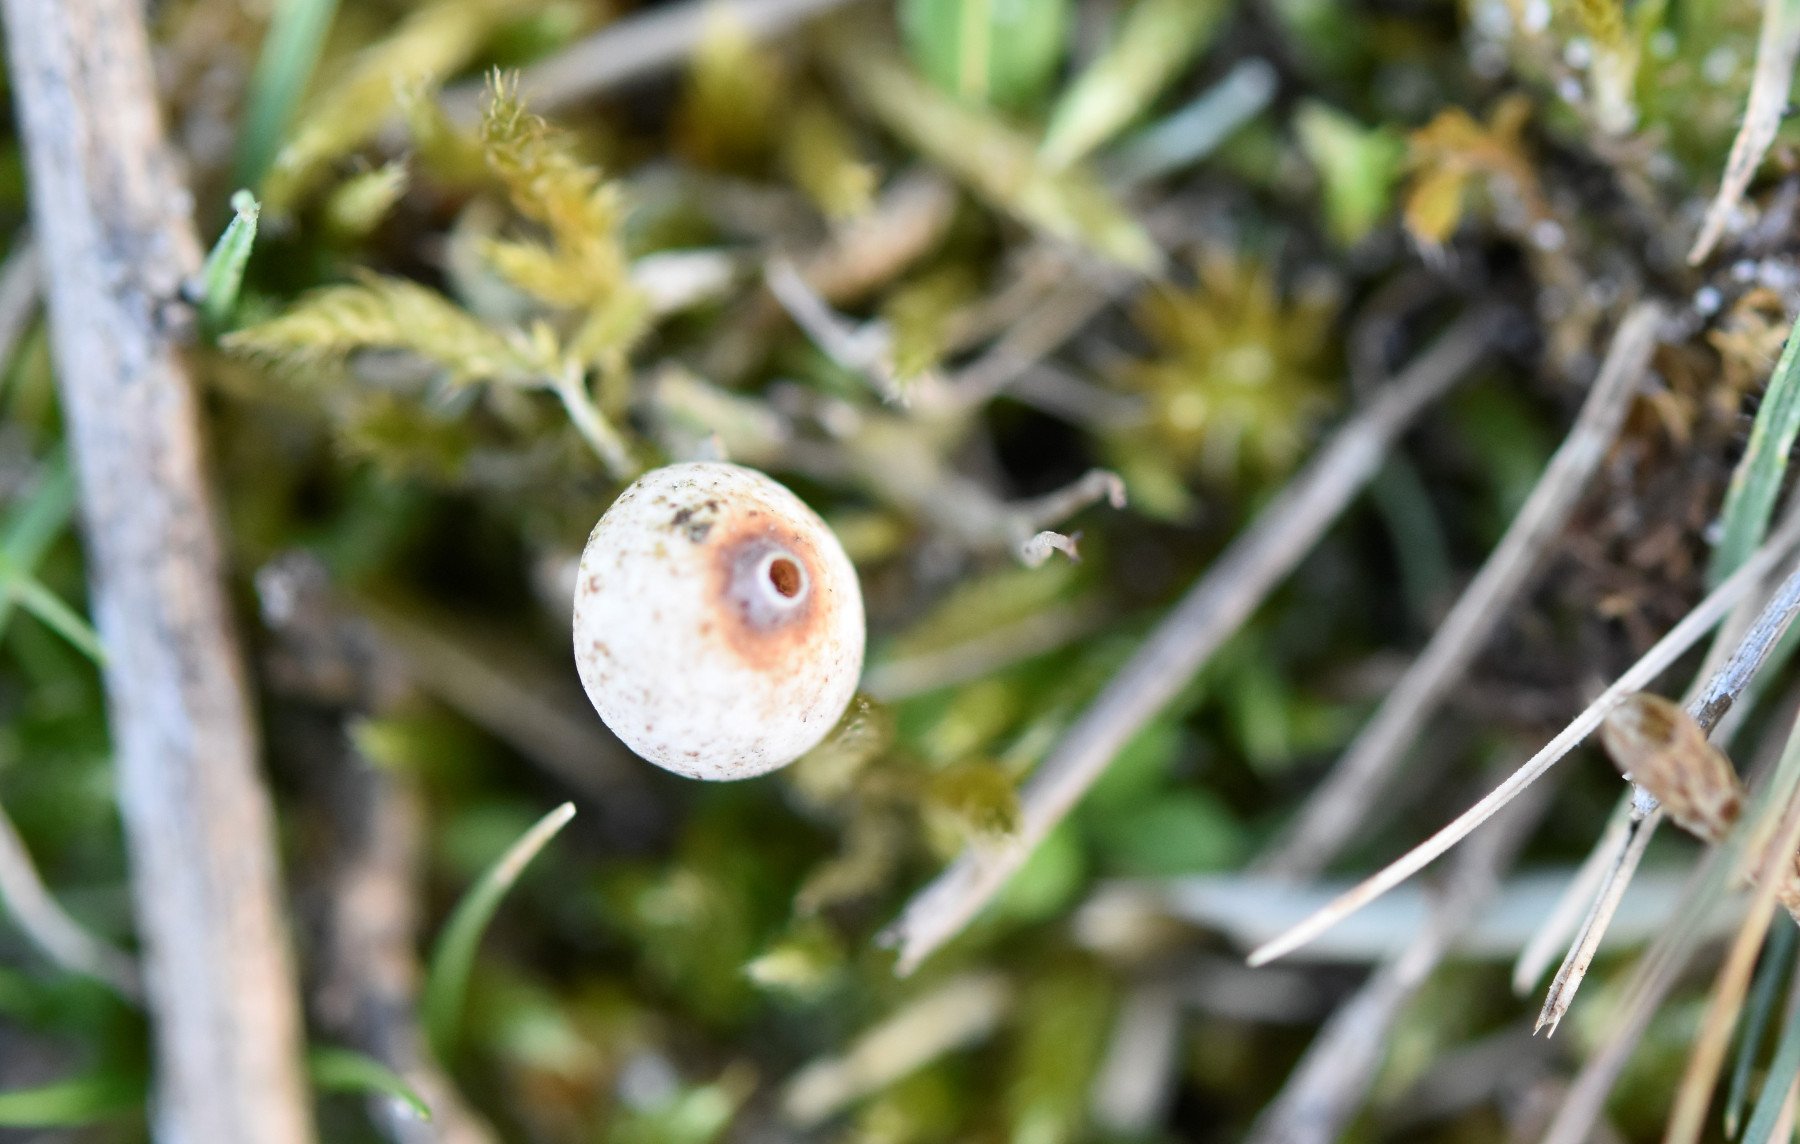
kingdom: Fungi
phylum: Basidiomycota
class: Agaricomycetes
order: Agaricales
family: Agaricaceae
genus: Tulostoma
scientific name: Tulostoma brumale
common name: vinter-stilkbovist
